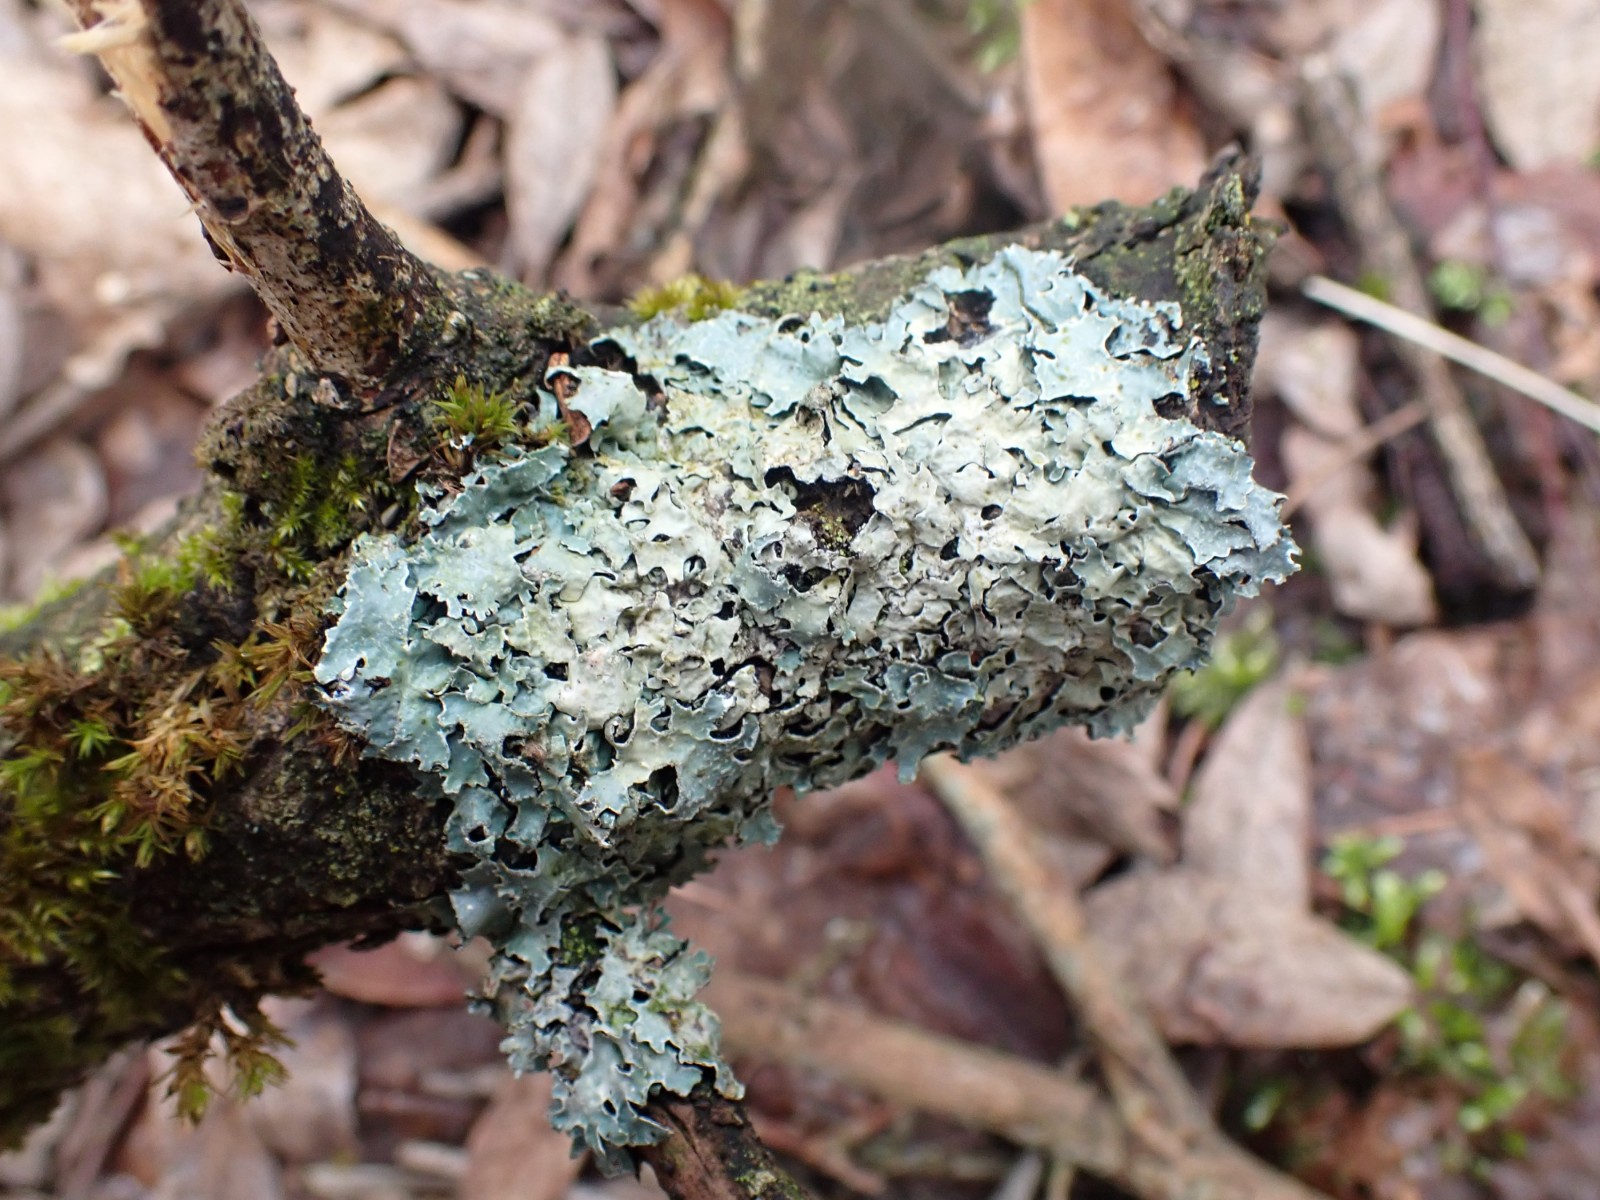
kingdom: Fungi
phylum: Ascomycota
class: Lecanoromycetes
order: Lecanorales
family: Parmeliaceae
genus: Parmelia
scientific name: Parmelia sulcata
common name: rynket skållav
